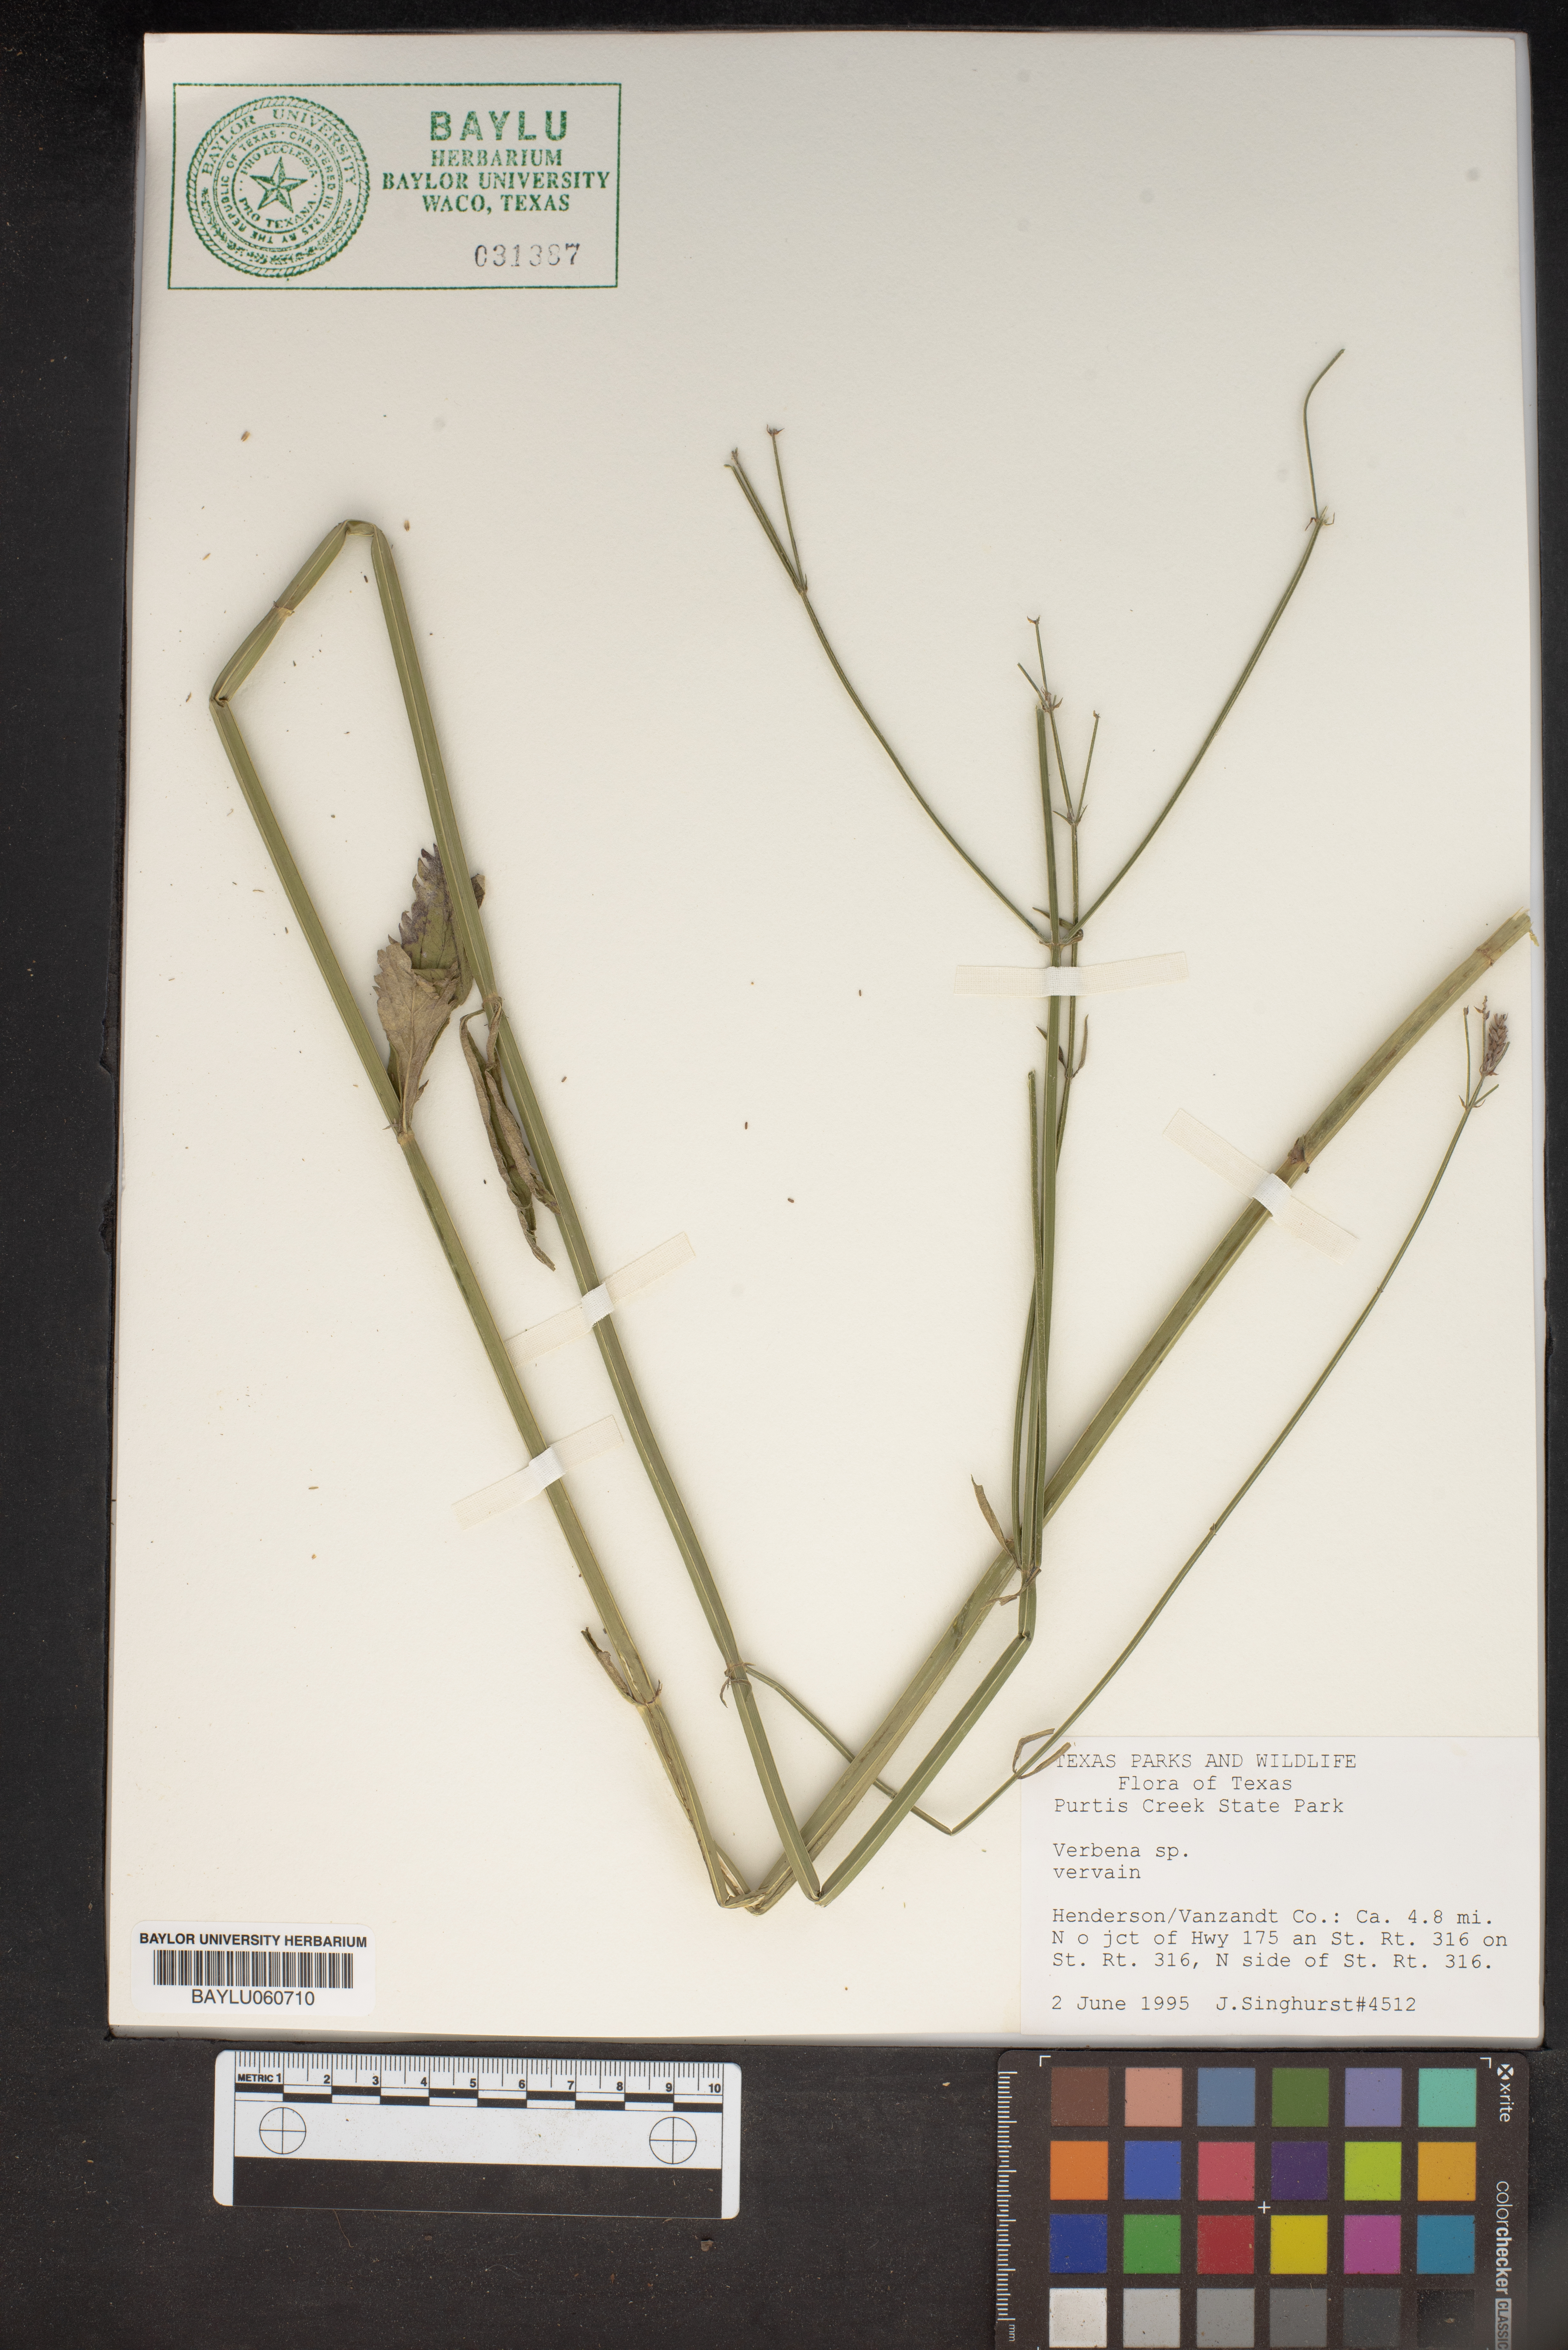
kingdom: Plantae
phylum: Tracheophyta
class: Magnoliopsida
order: Lamiales
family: Verbenaceae
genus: Verbena
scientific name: Verbena
